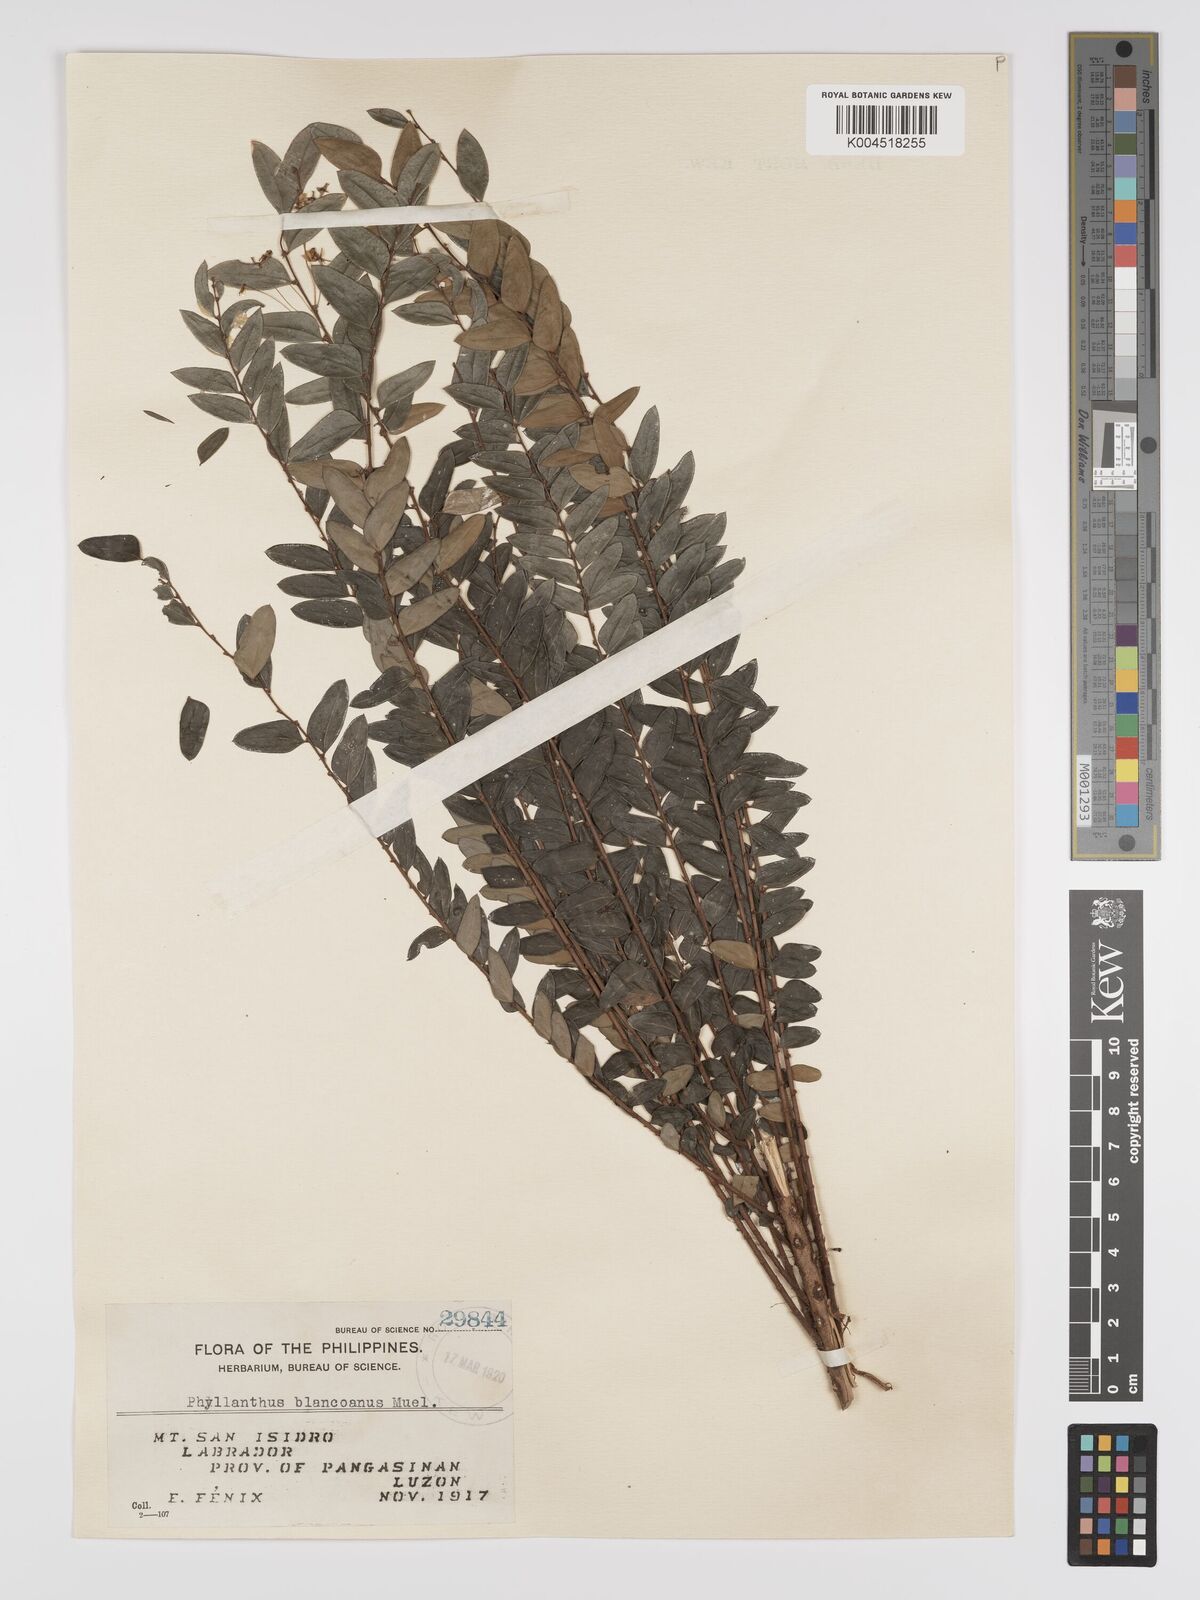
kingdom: Plantae
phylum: Tracheophyta
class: Magnoliopsida
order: Malpighiales
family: Phyllanthaceae
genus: Phyllanthus
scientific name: Phyllanthus blancoanus
